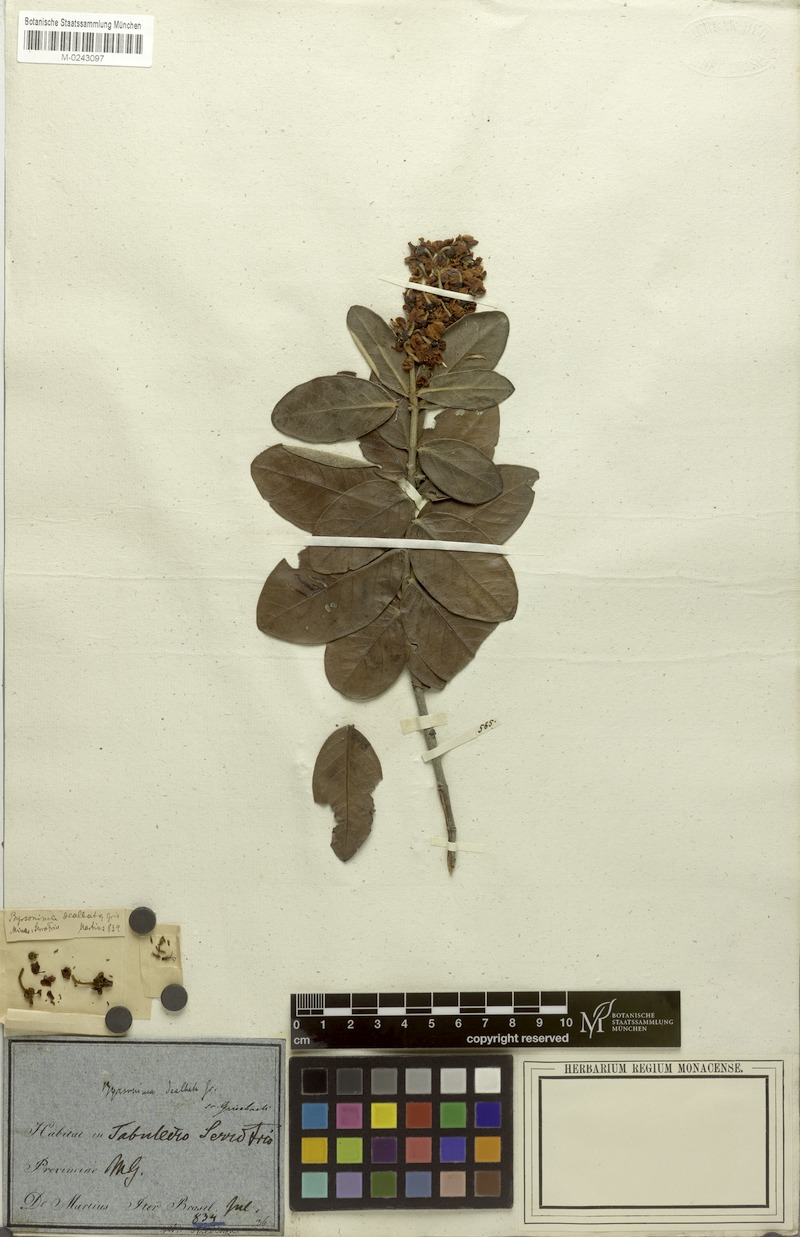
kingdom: Plantae
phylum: Tracheophyta
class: Magnoliopsida
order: Malpighiales
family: Malpighiaceae
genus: Byrsonima
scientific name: Byrsonima dealbata
